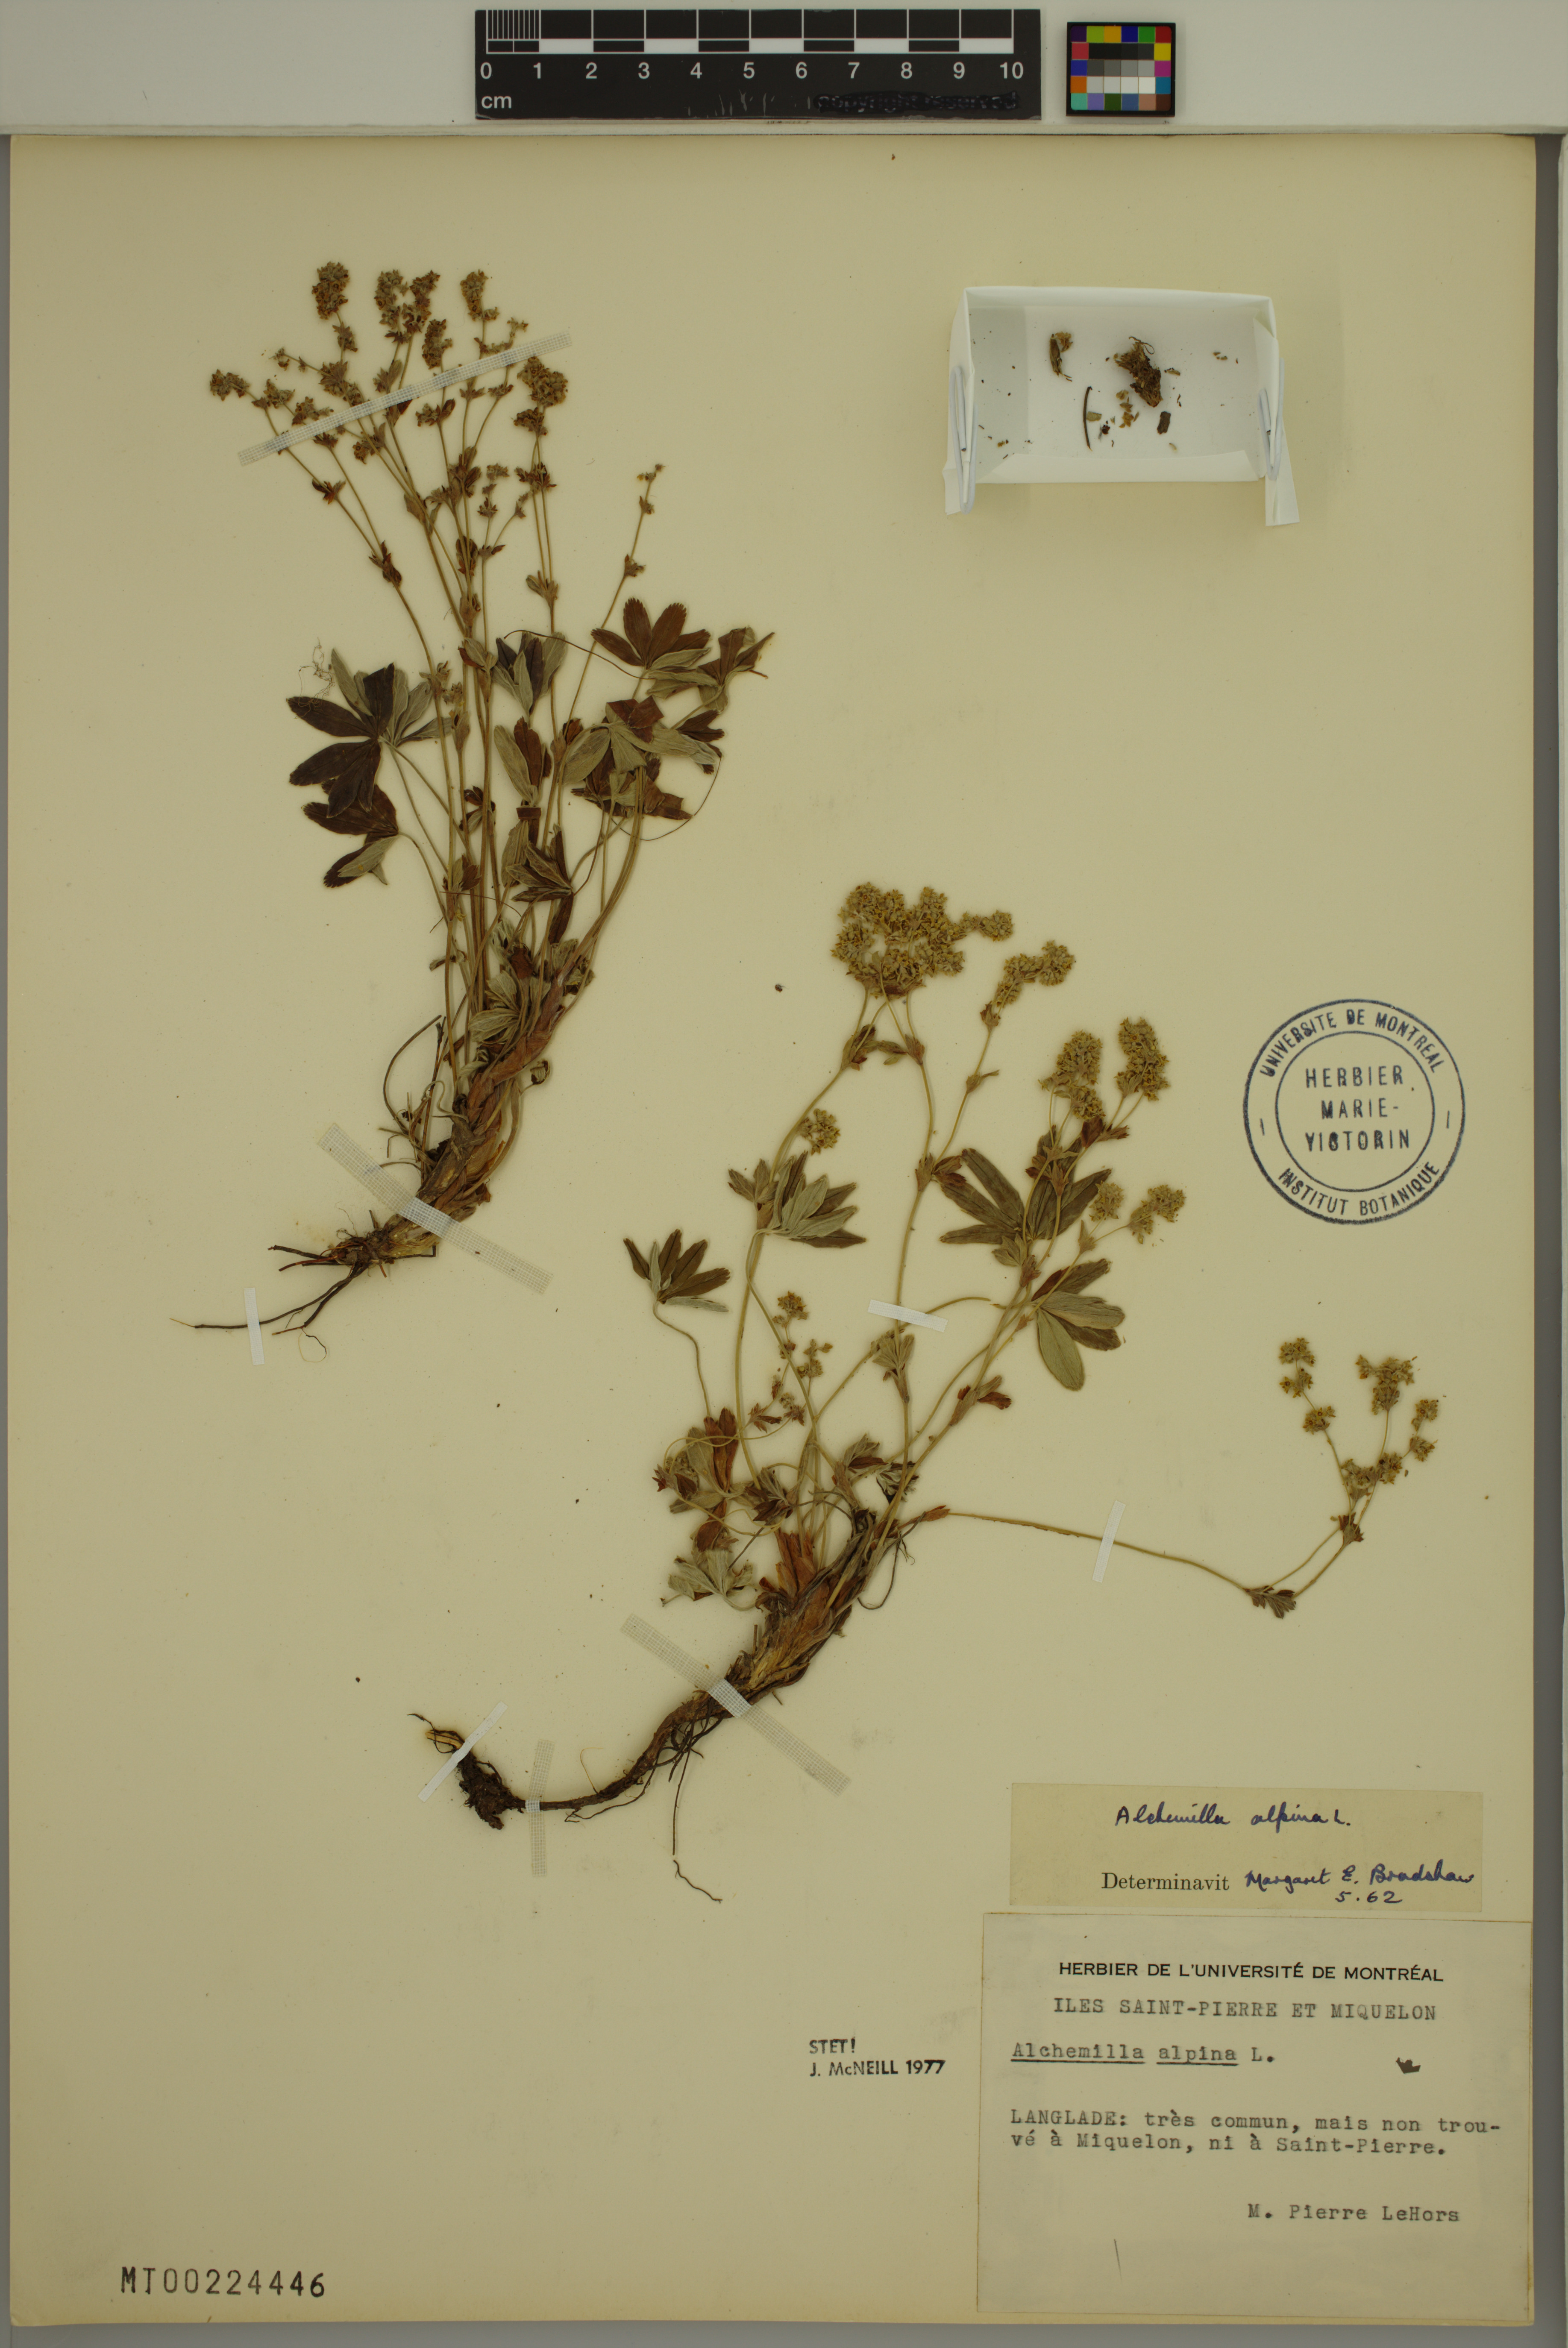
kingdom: Plantae
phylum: Tracheophyta
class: Magnoliopsida
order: Rosales
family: Rosaceae
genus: Alchemilla
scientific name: Alchemilla alpina
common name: Alpine lady's-mantle
